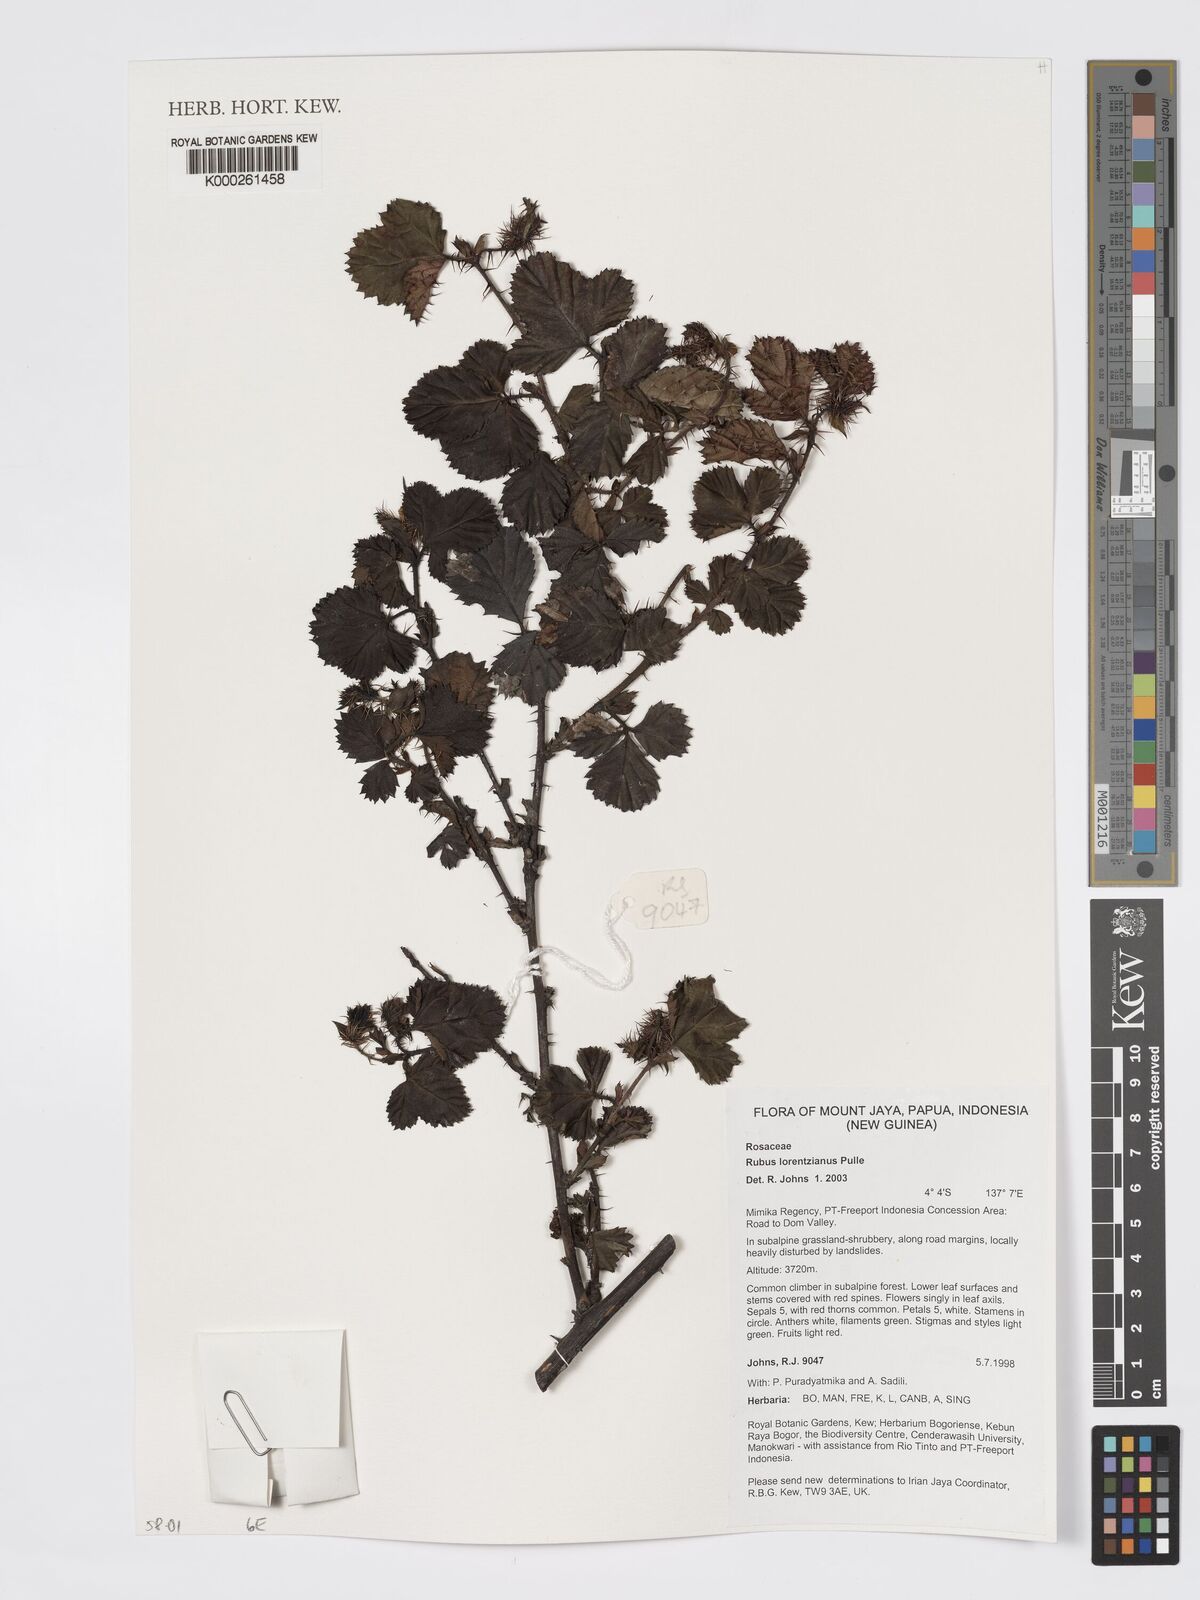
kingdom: Plantae
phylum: Tracheophyta
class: Magnoliopsida
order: Rosales
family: Rosaceae
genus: Rubus
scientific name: Rubus lorentzianus
